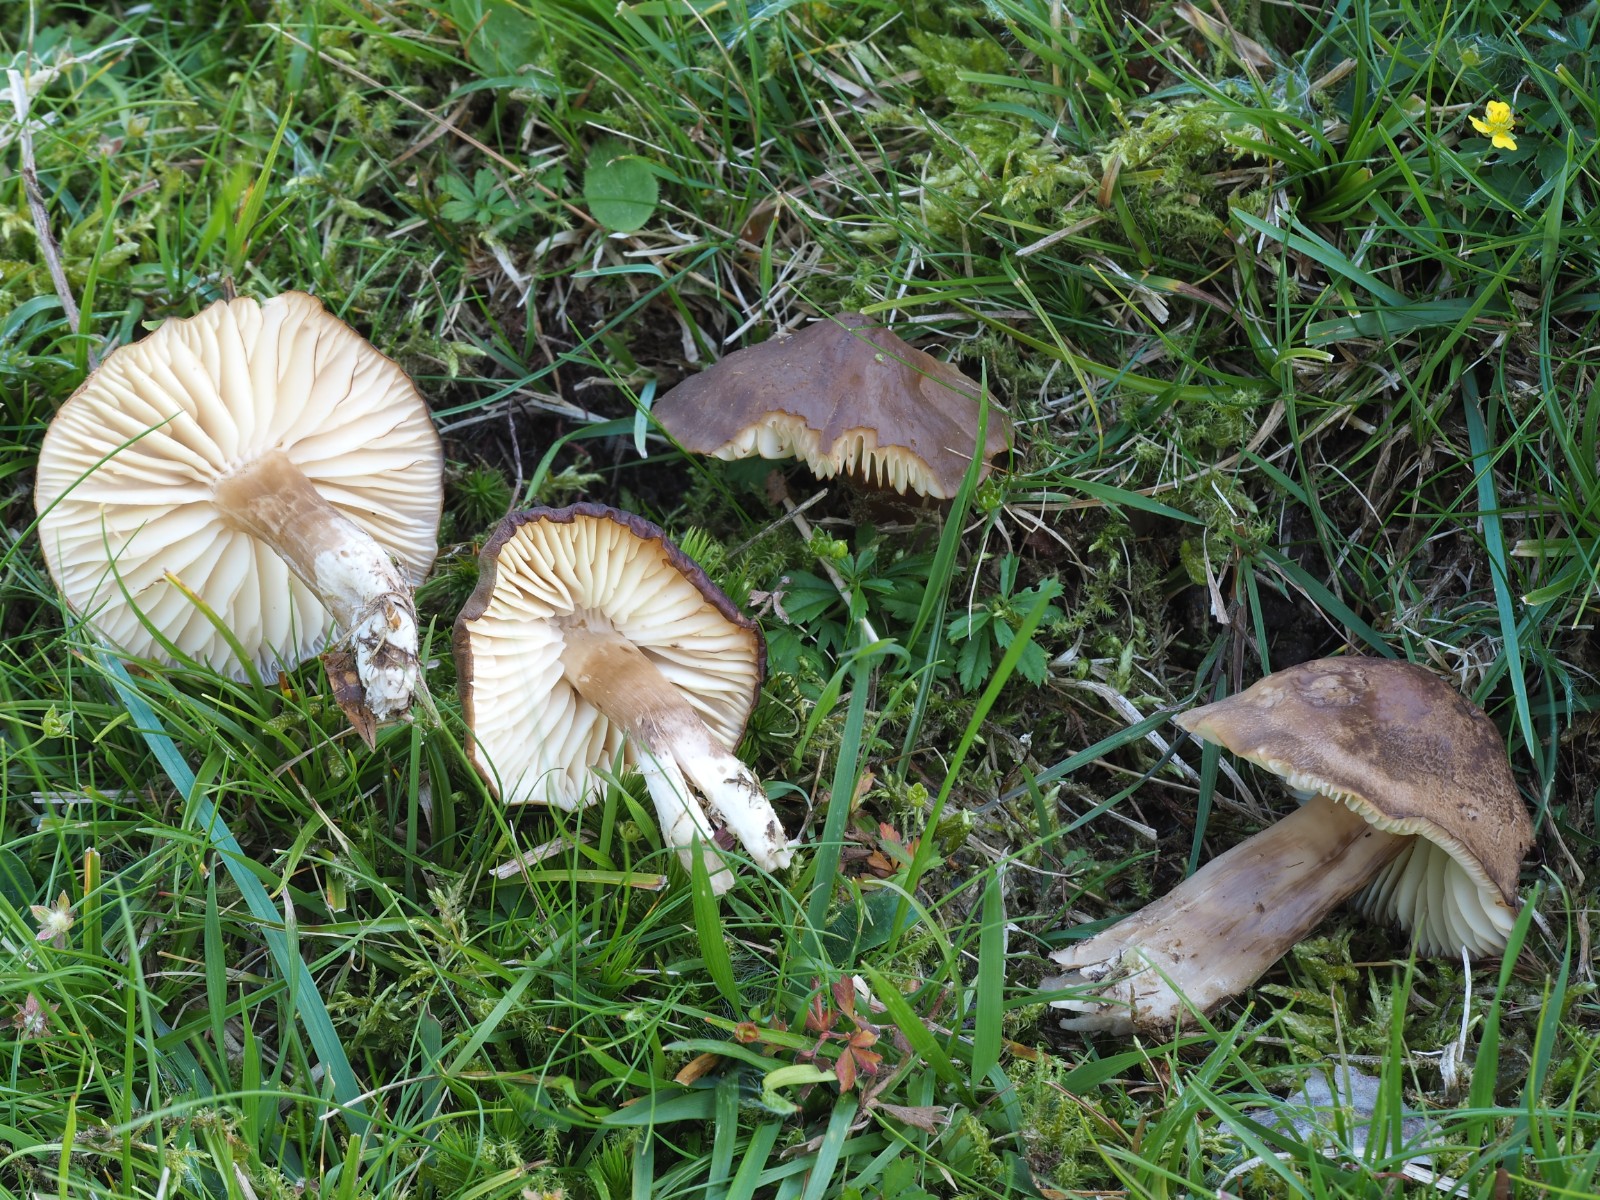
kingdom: Fungi
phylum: Basidiomycota
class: Agaricomycetes
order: Agaricales
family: Hygrophoraceae
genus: Neohygrocybe
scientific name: Neohygrocybe nitrata
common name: stinkende vokshat
